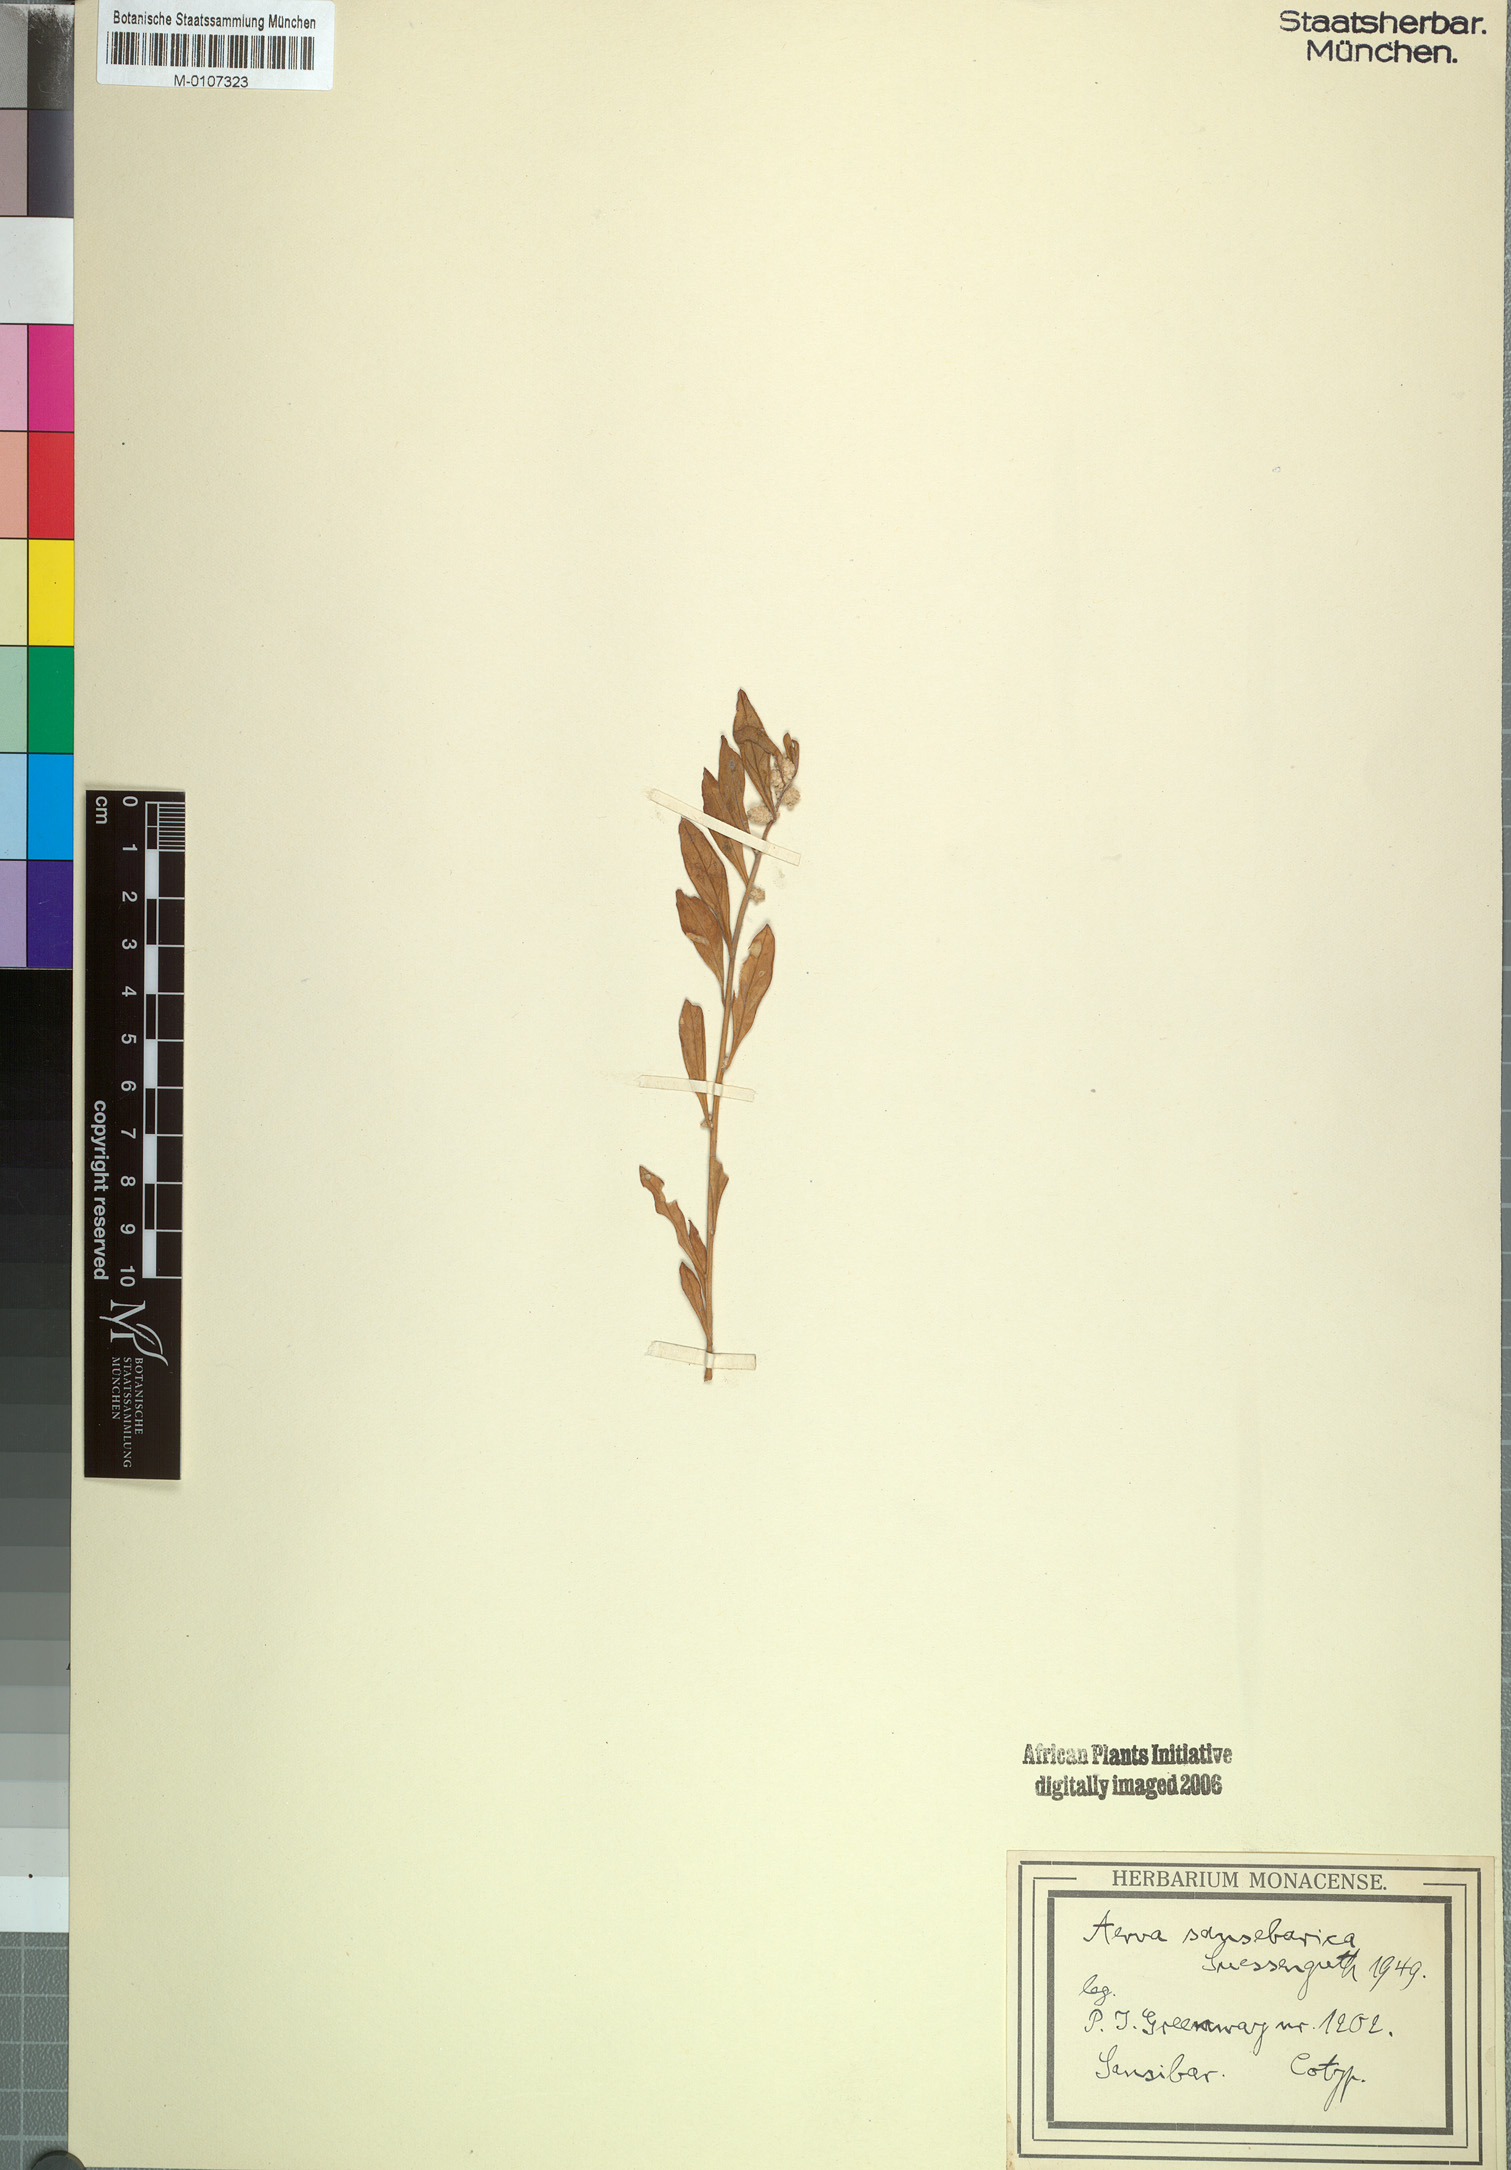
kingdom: Plantae
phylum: Tracheophyta
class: Magnoliopsida
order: Caryophyllales
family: Amaranthaceae
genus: Ouret
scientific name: Ouret lanata
